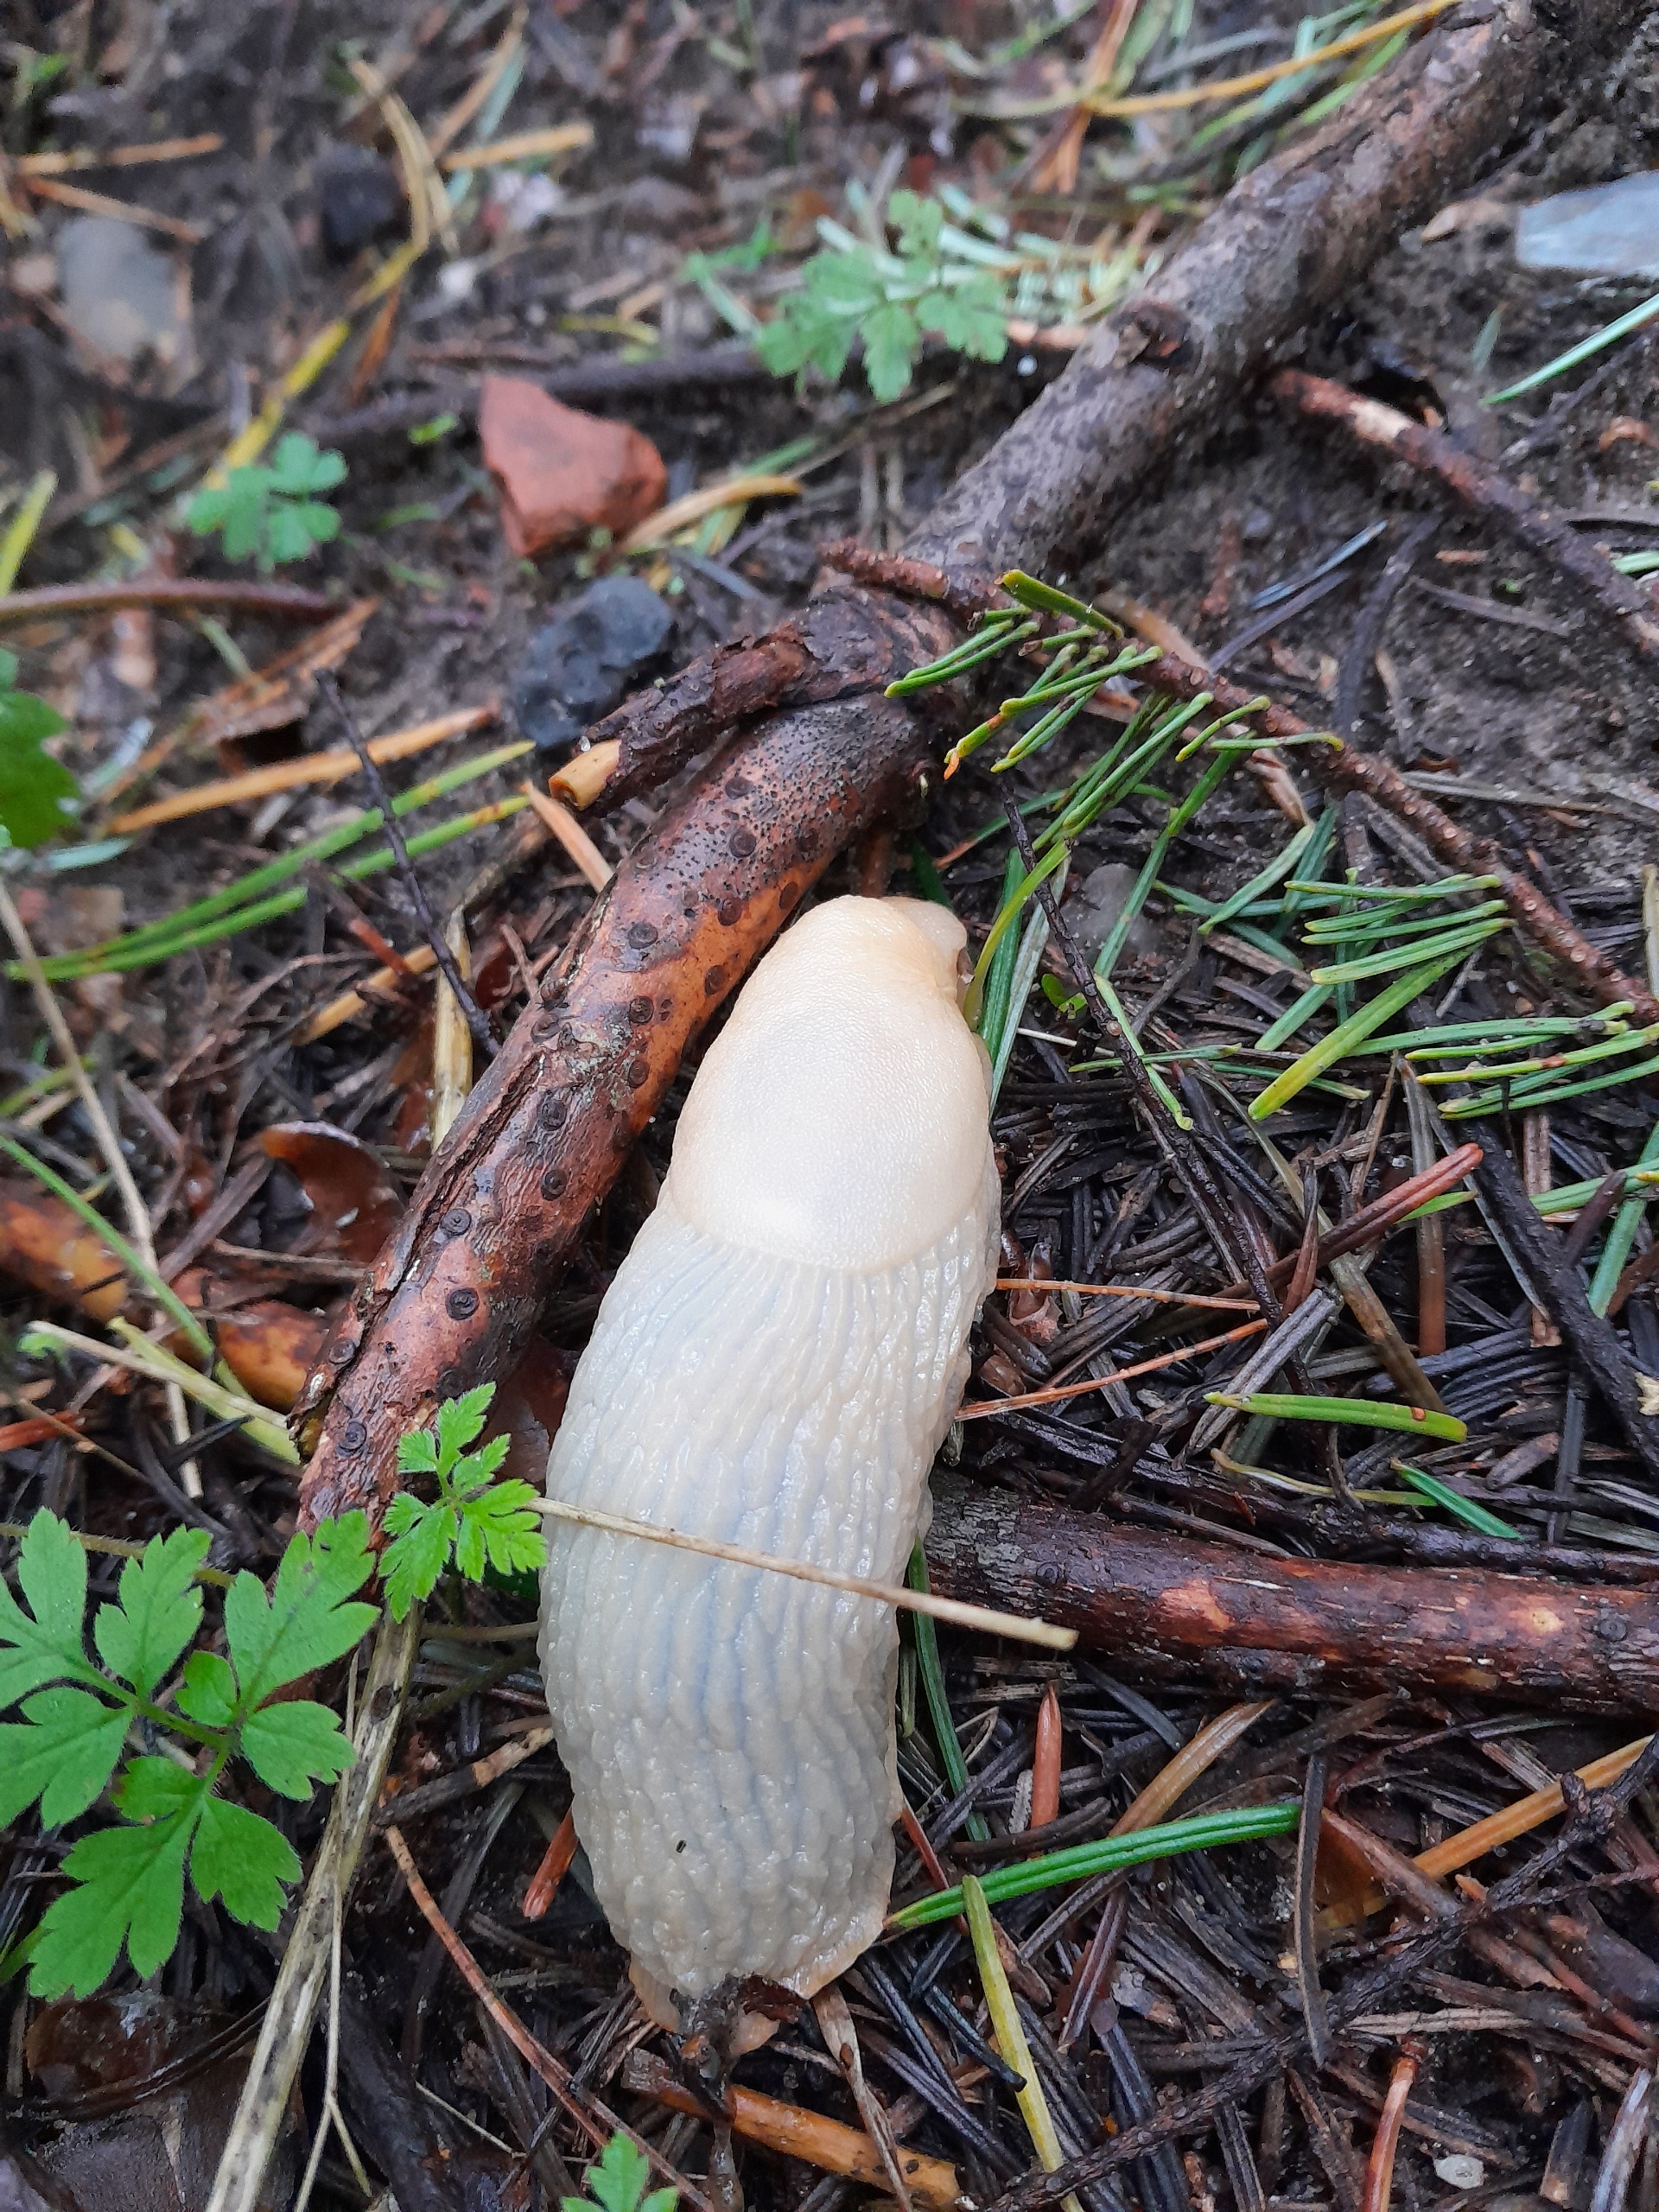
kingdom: Animalia
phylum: Mollusca
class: Gastropoda
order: Stylommatophora
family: Arionidae
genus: Arion
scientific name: Arion ater
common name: Sort skovsnegl
